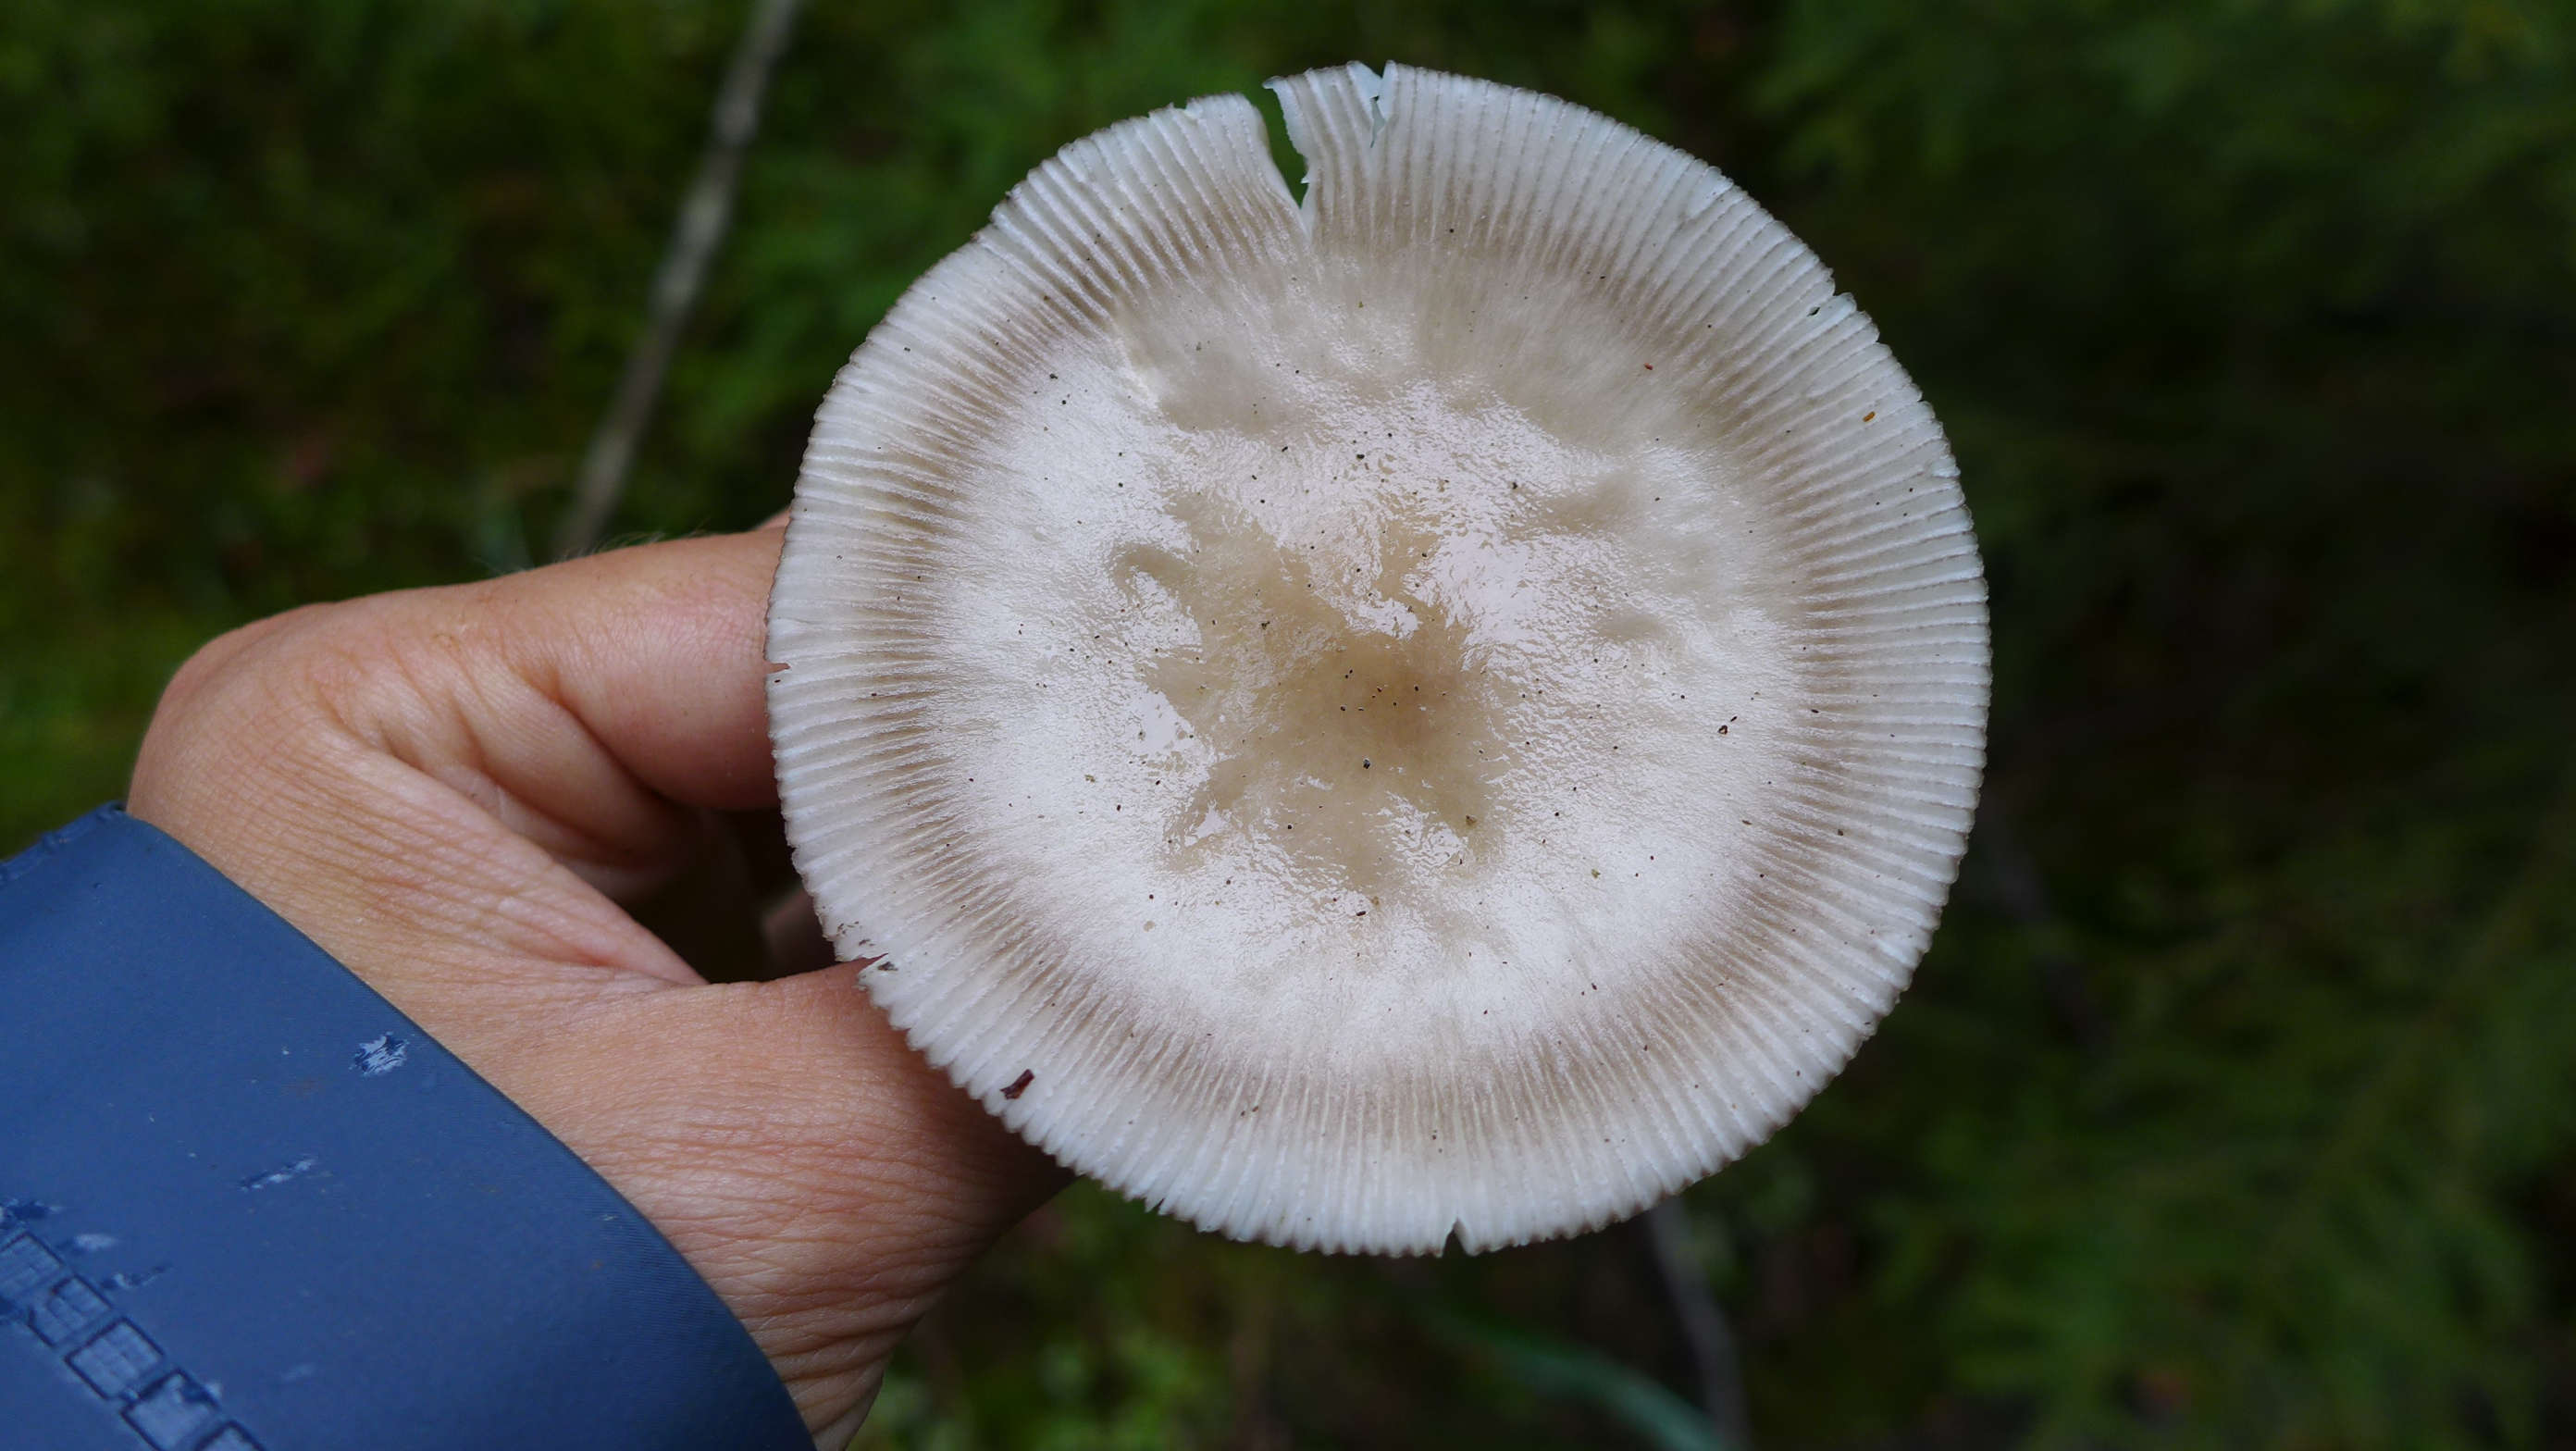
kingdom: Fungi
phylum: Basidiomycota
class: Agaricomycetes
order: Agaricales
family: Amanitaceae
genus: Amanita
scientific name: Amanita battarrae
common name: Banded amanita
